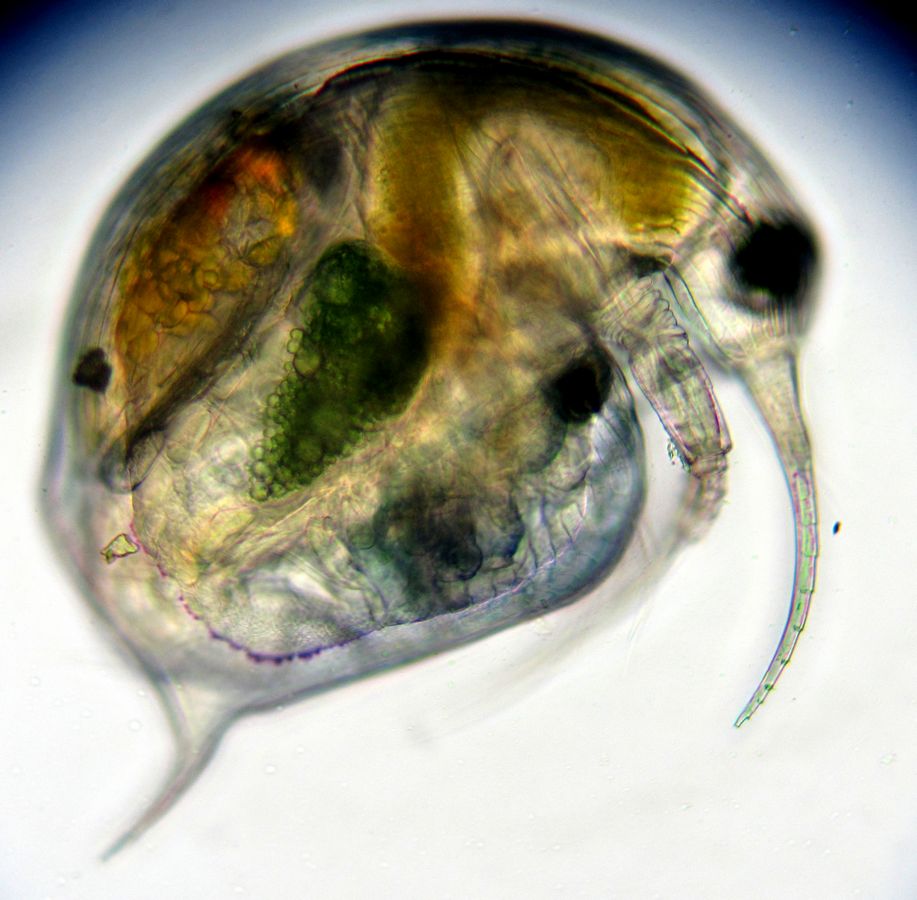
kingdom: Animalia
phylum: Arthropoda
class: Branchiopoda
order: Diplostraca
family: Bosminidae
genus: Bosmina
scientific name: Bosmina longirostris
